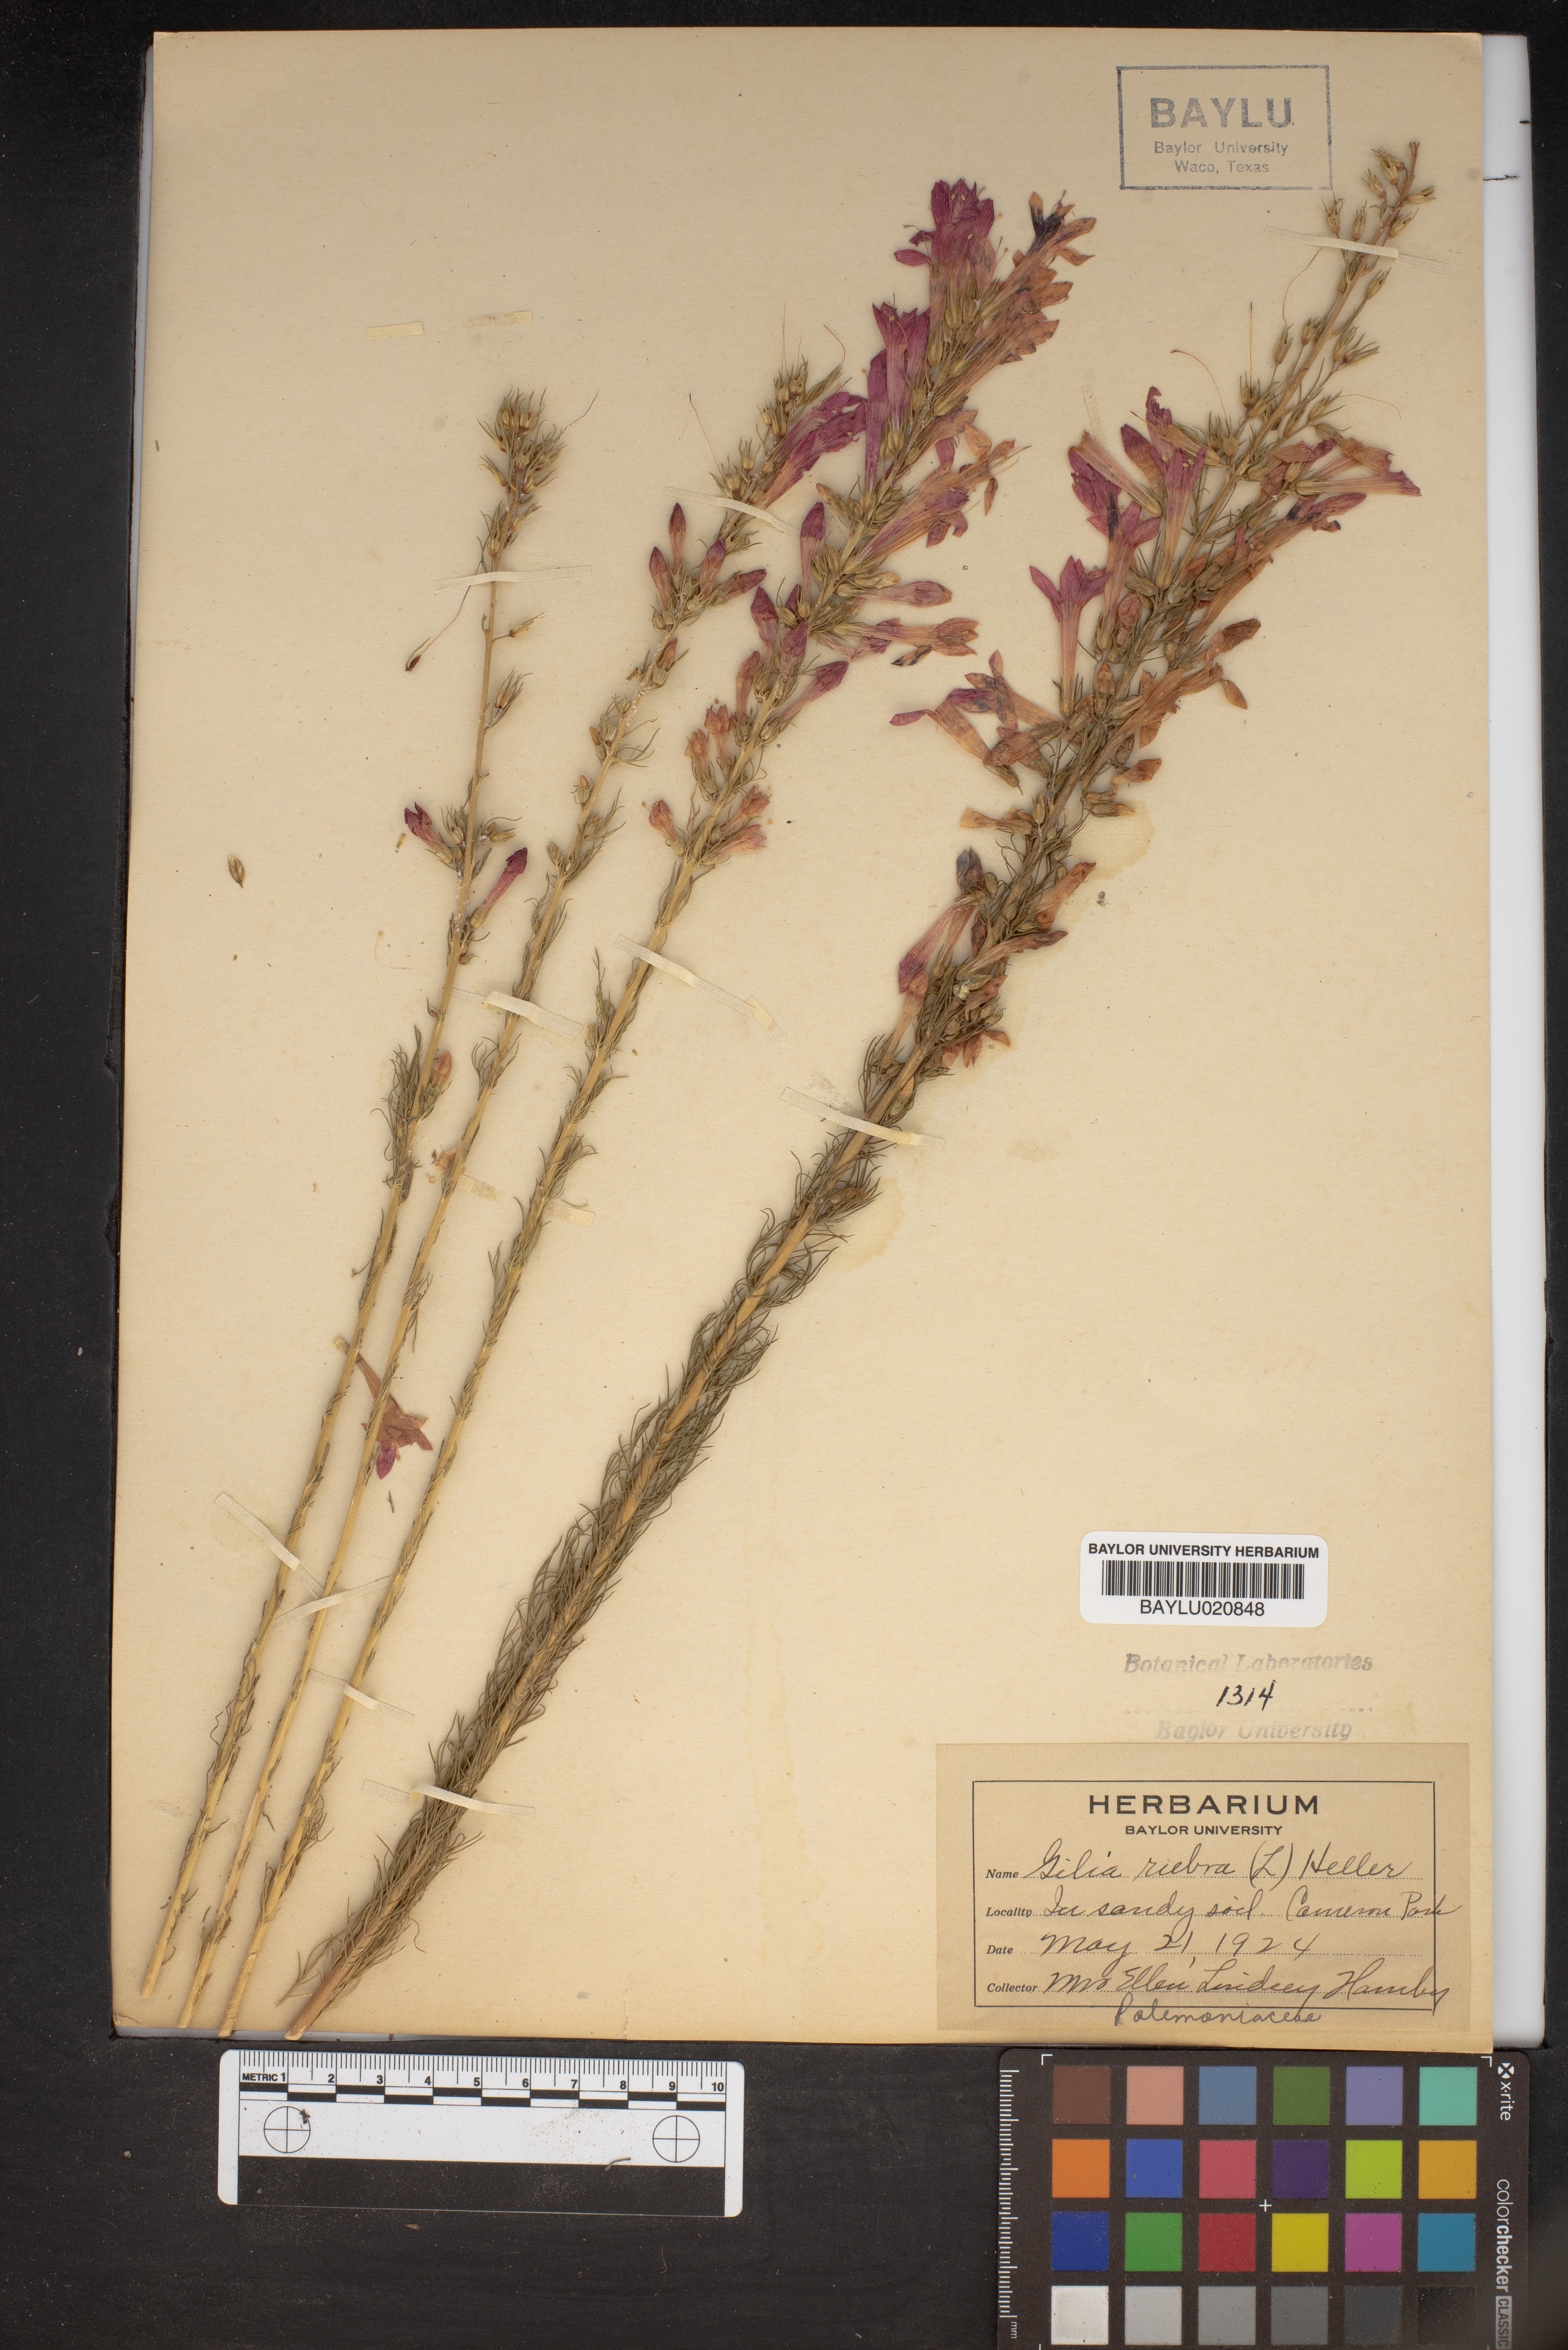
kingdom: Plantae
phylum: Tracheophyta
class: Magnoliopsida
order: Ericales
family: Polemoniaceae
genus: Ipomopsis
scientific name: Ipomopsis rubra
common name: Skyrocket
